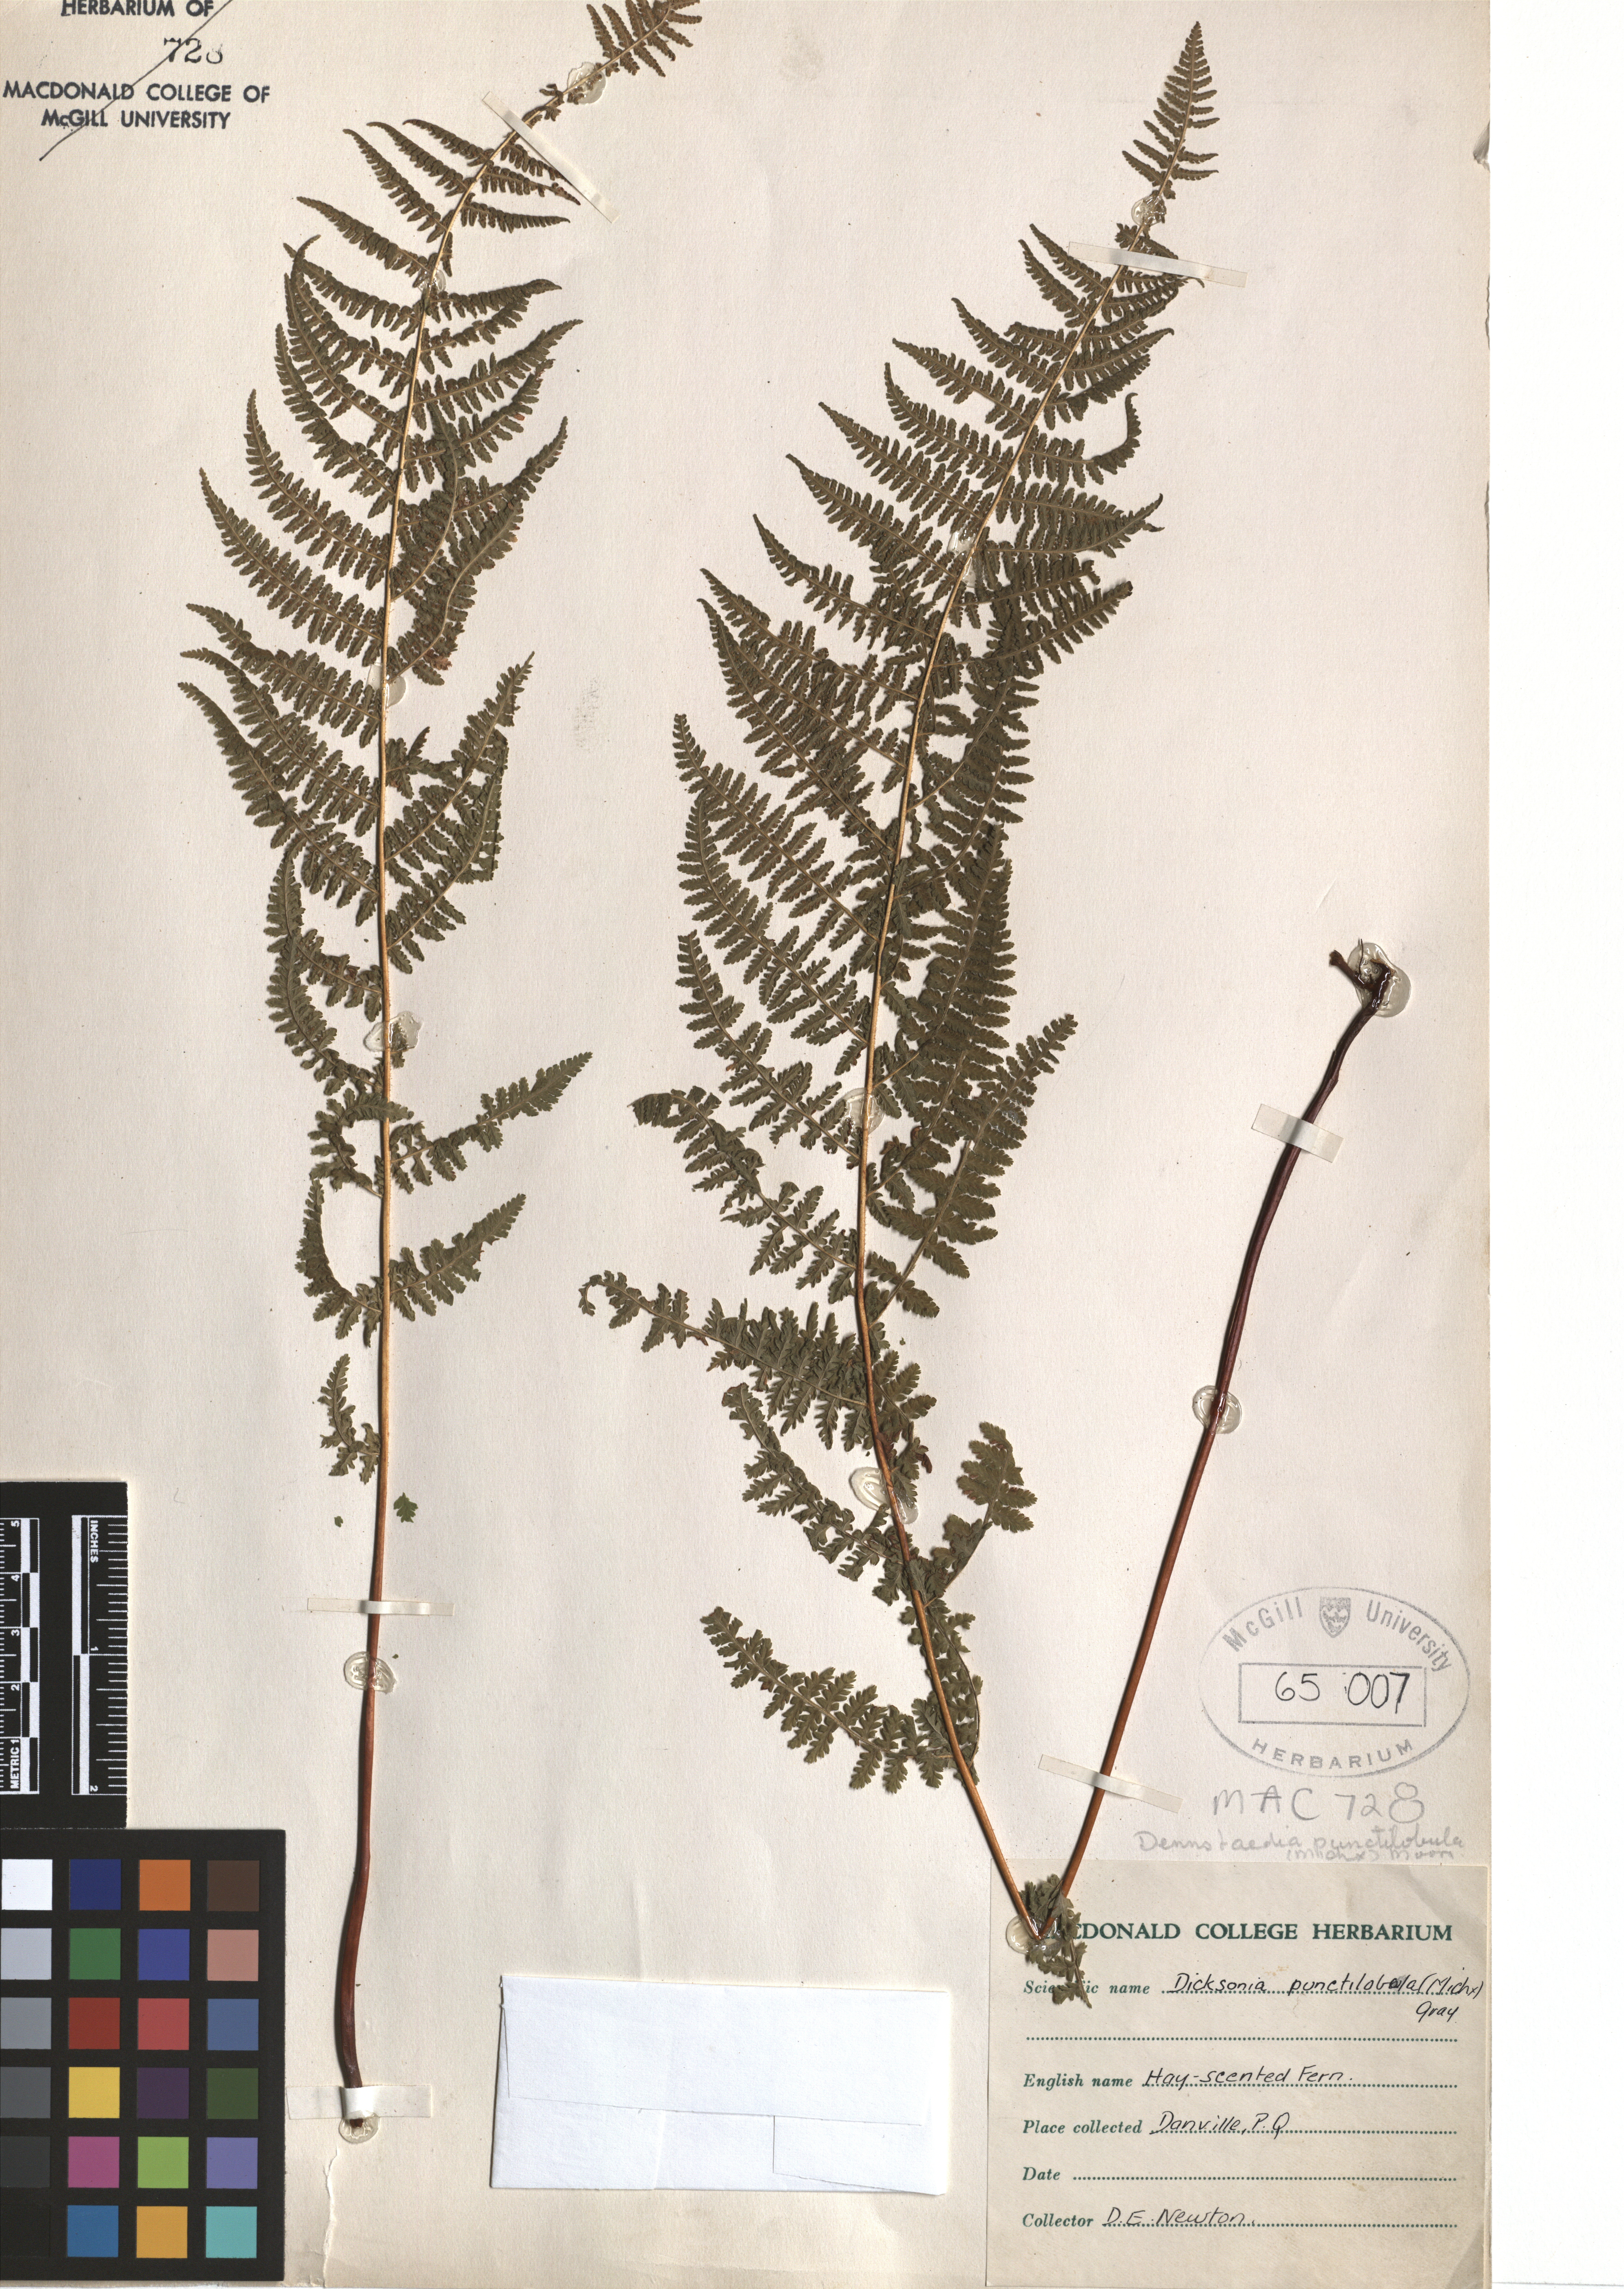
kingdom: Plantae
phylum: Tracheophyta
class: Polypodiopsida
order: Polypodiales
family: Dennstaedtiaceae
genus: Sitobolium
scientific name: Sitobolium punctilobum
